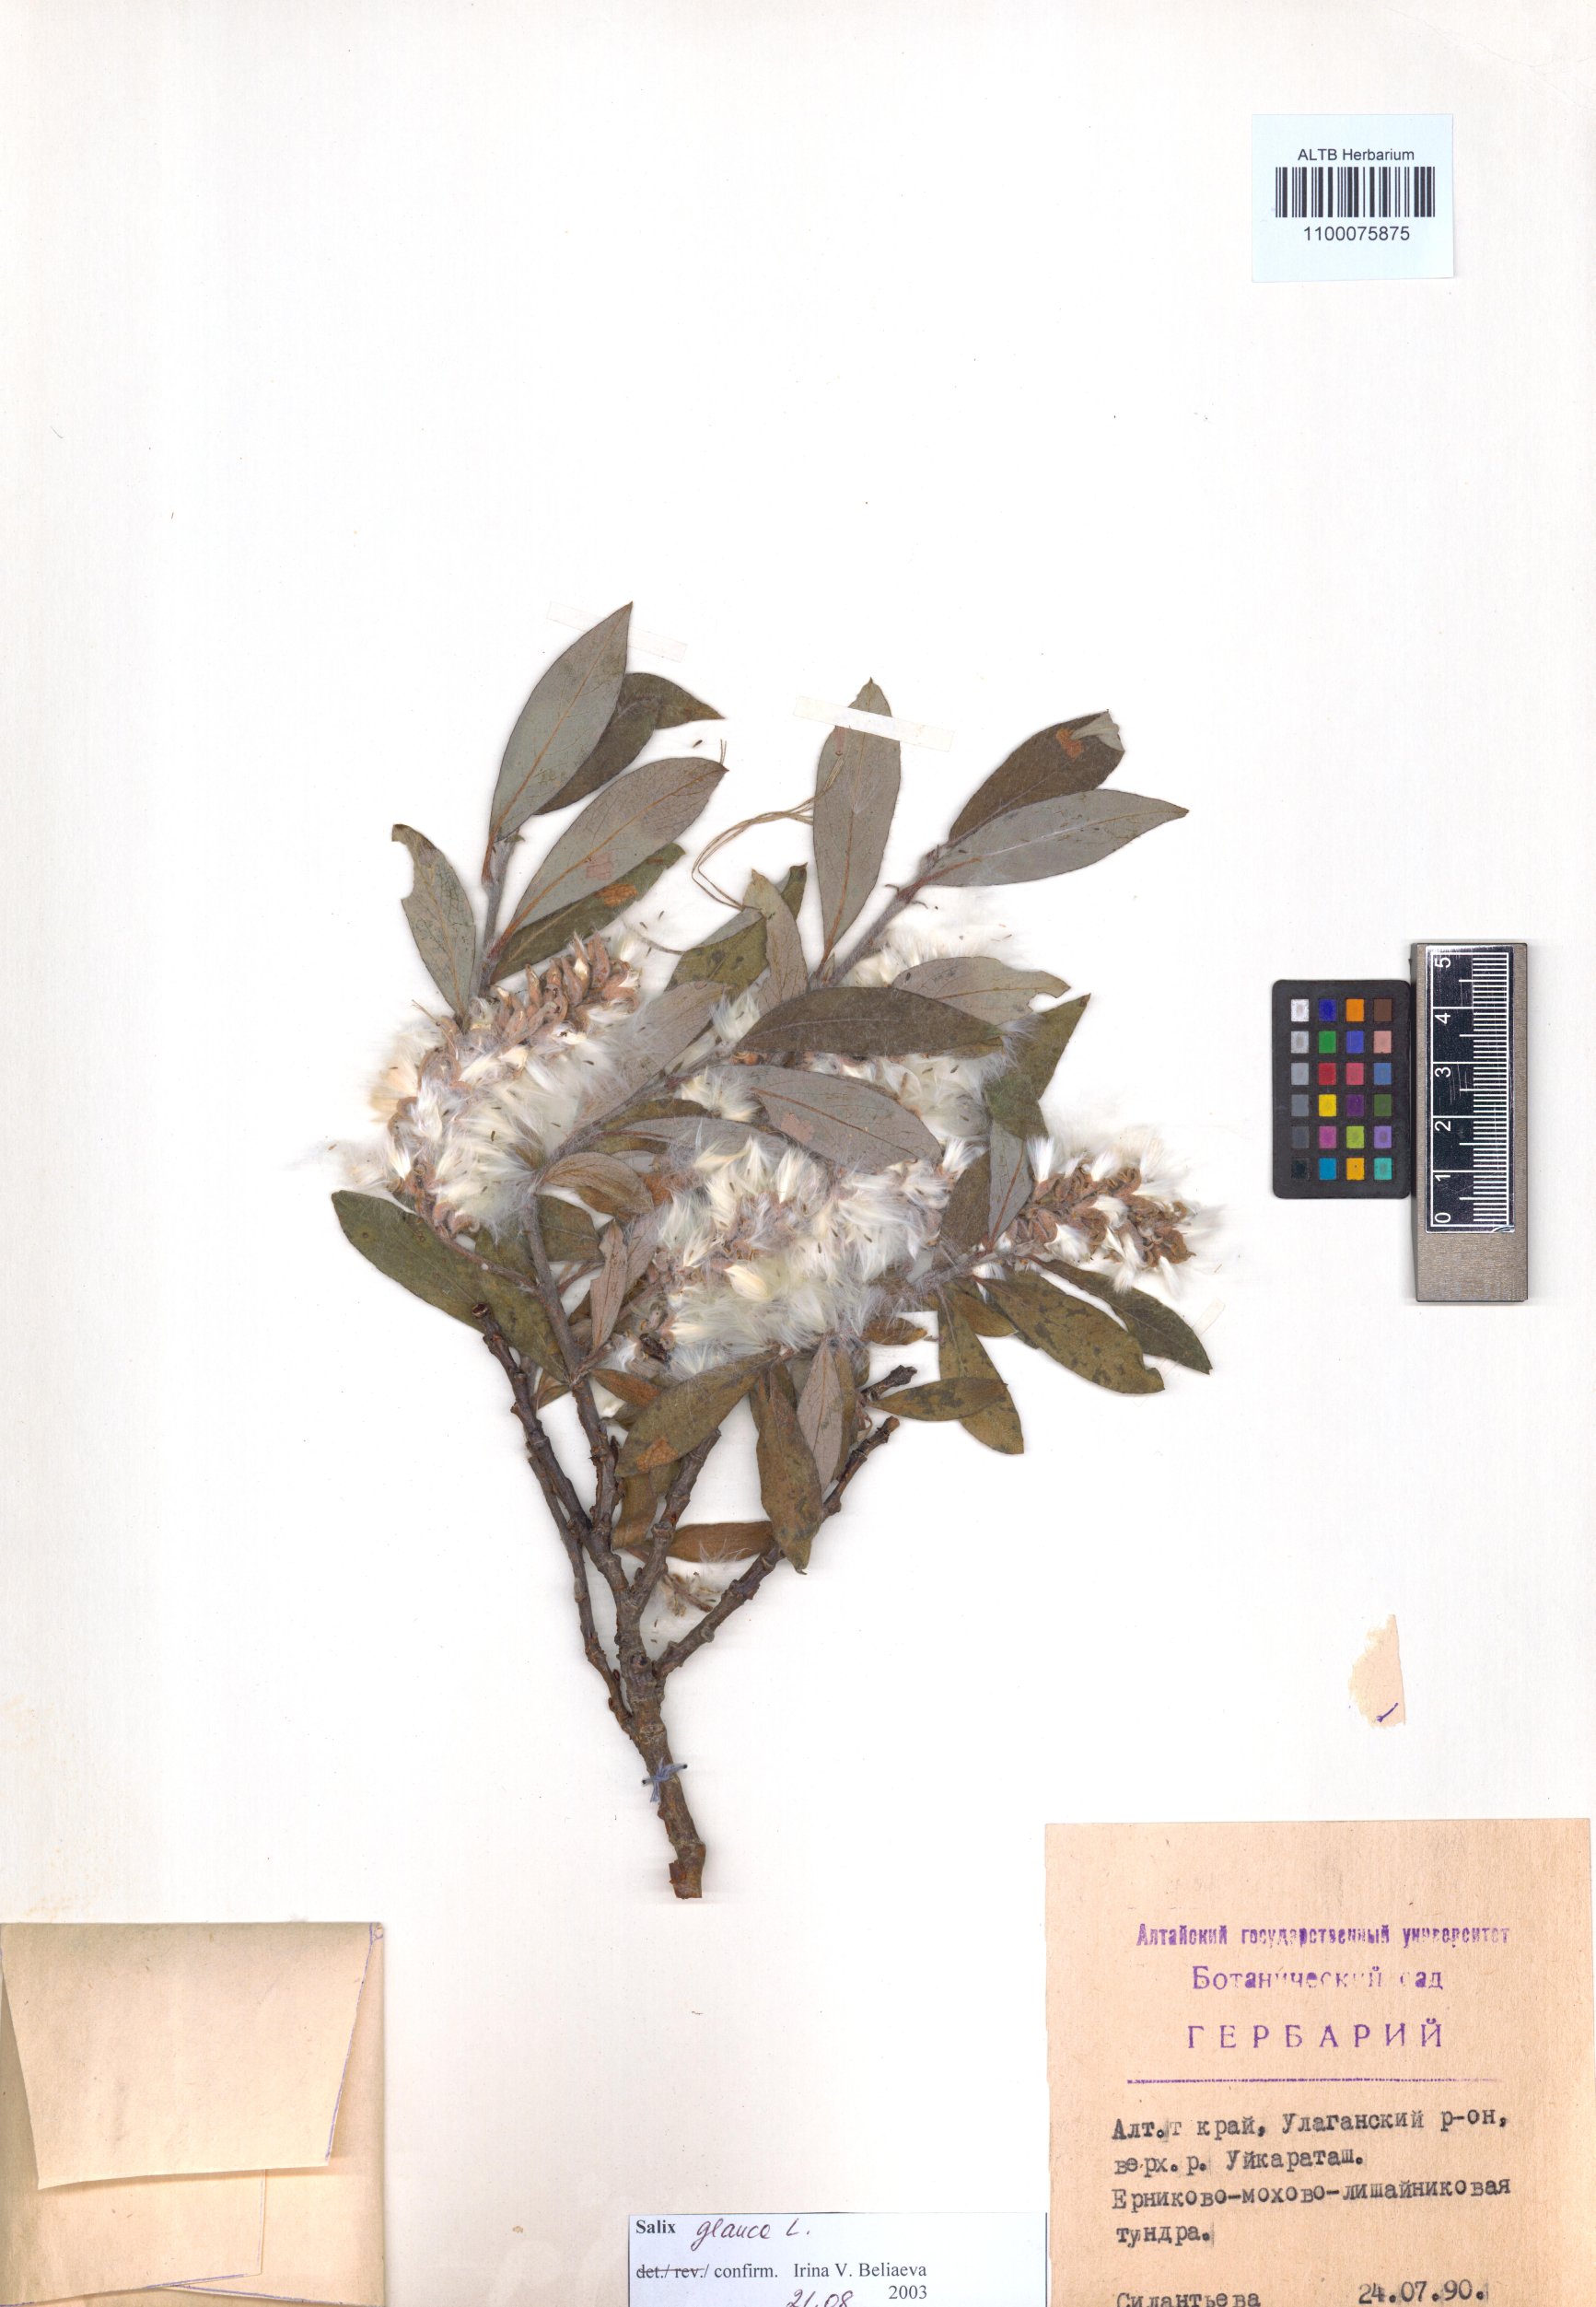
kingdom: Plantae
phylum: Tracheophyta
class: Magnoliopsida
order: Malpighiales
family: Salicaceae
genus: Salix
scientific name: Salix glauca
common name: Glaucous willow
